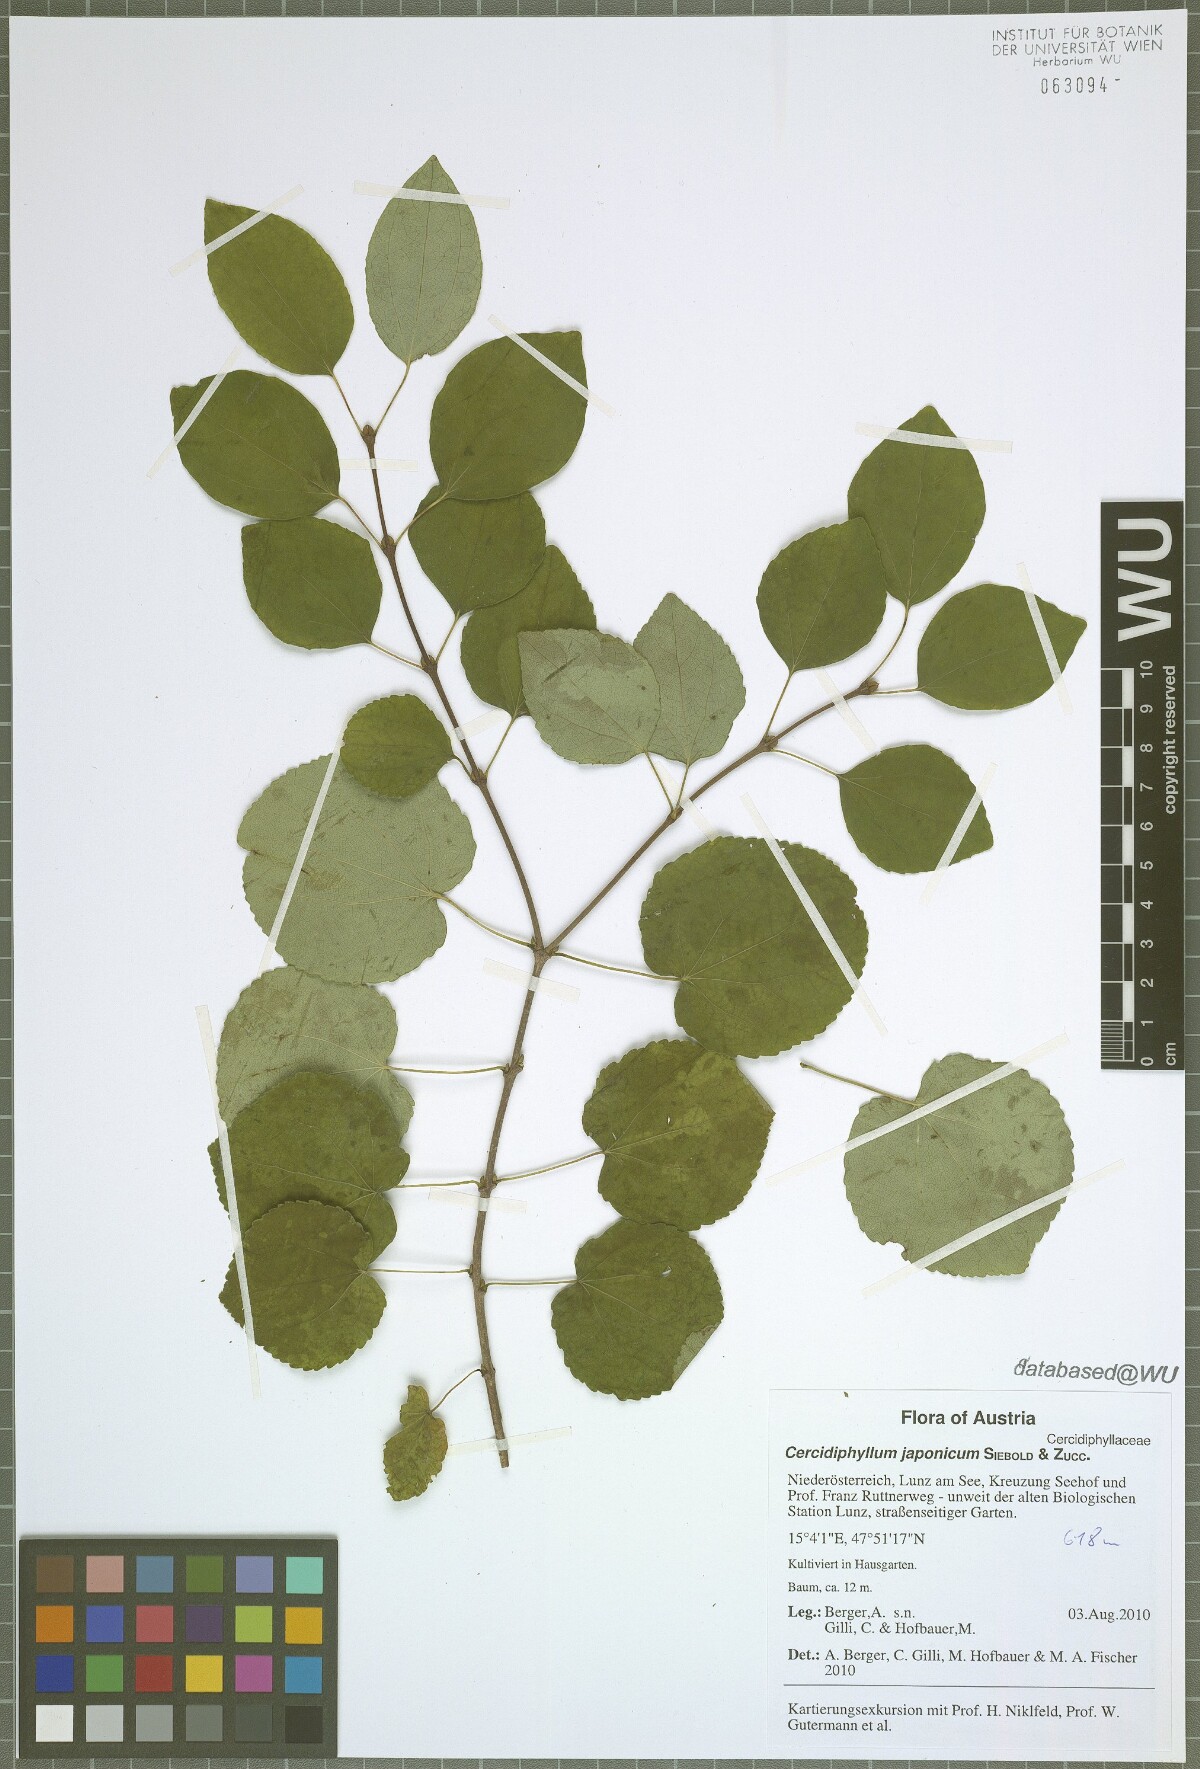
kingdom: Plantae
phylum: Tracheophyta
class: Magnoliopsida
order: Saxifragales
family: Cercidiphyllaceae
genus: Cercidiphyllum
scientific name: Cercidiphyllum japonicum
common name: Katsura tree
